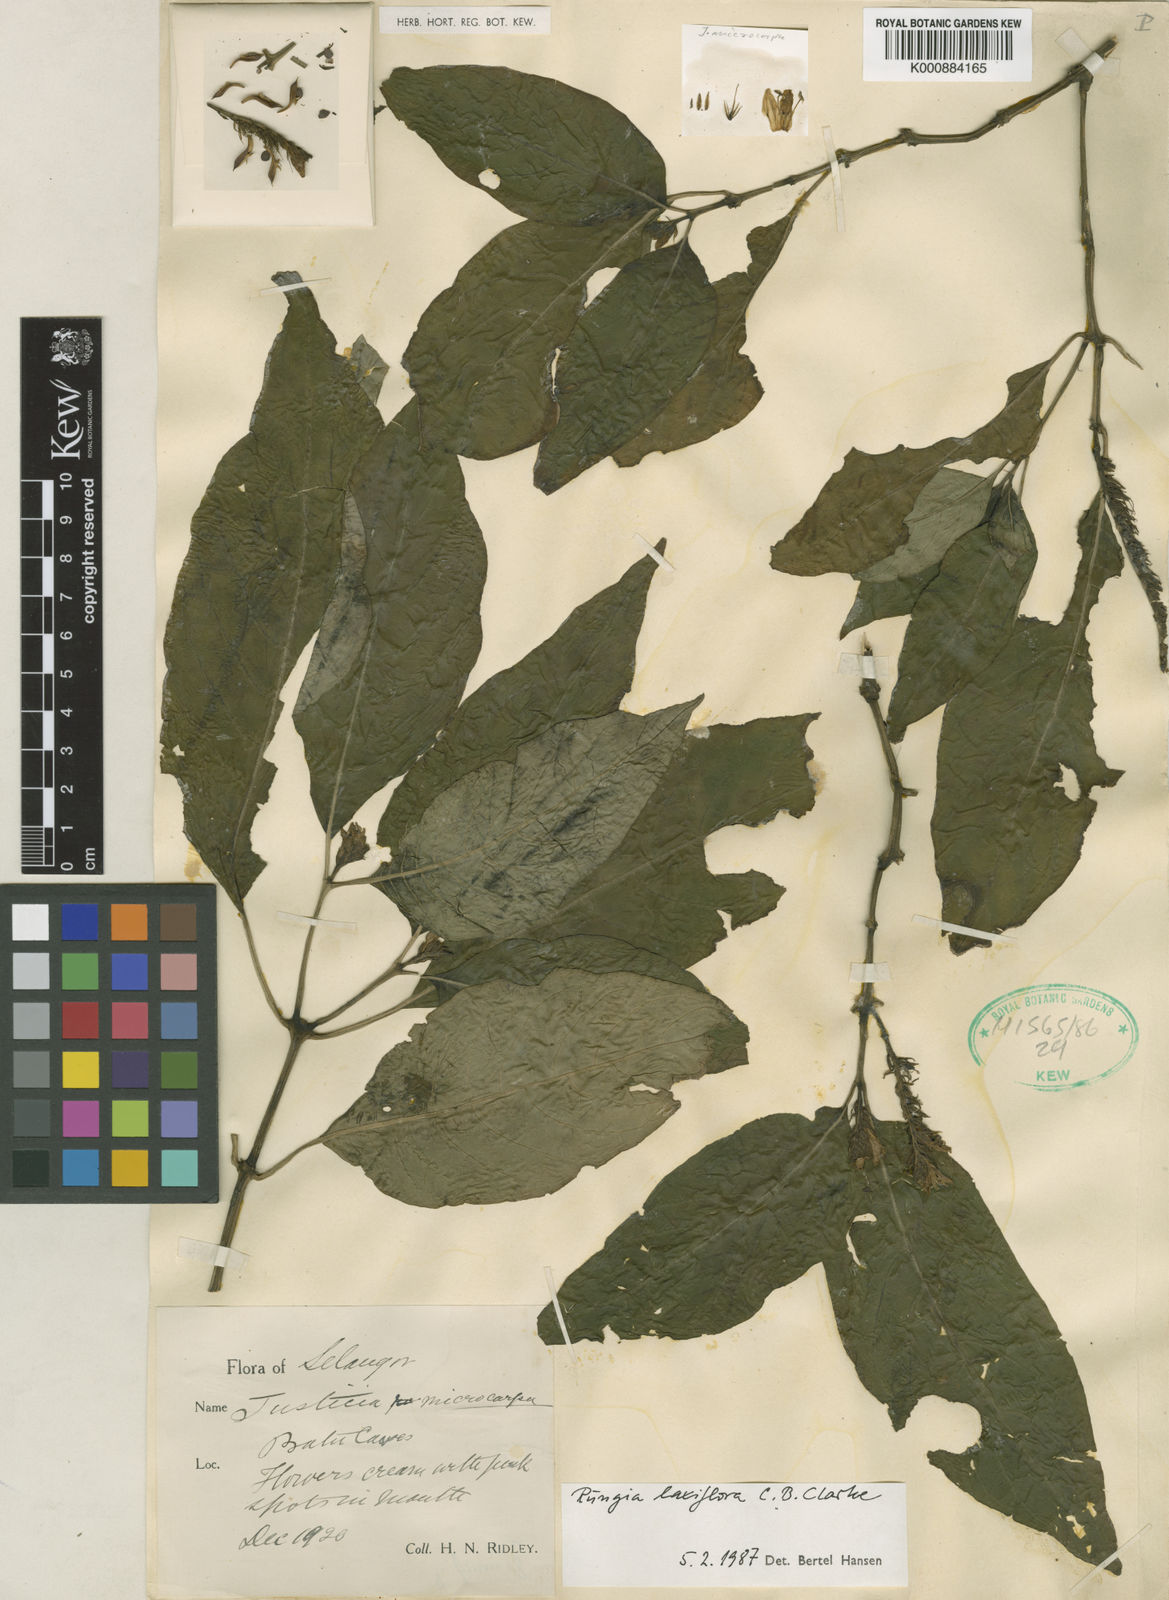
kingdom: Plantae
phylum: Tracheophyta
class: Magnoliopsida
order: Lamiales
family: Acanthaceae
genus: Haplanthus
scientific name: Haplanthus laxiflorus
